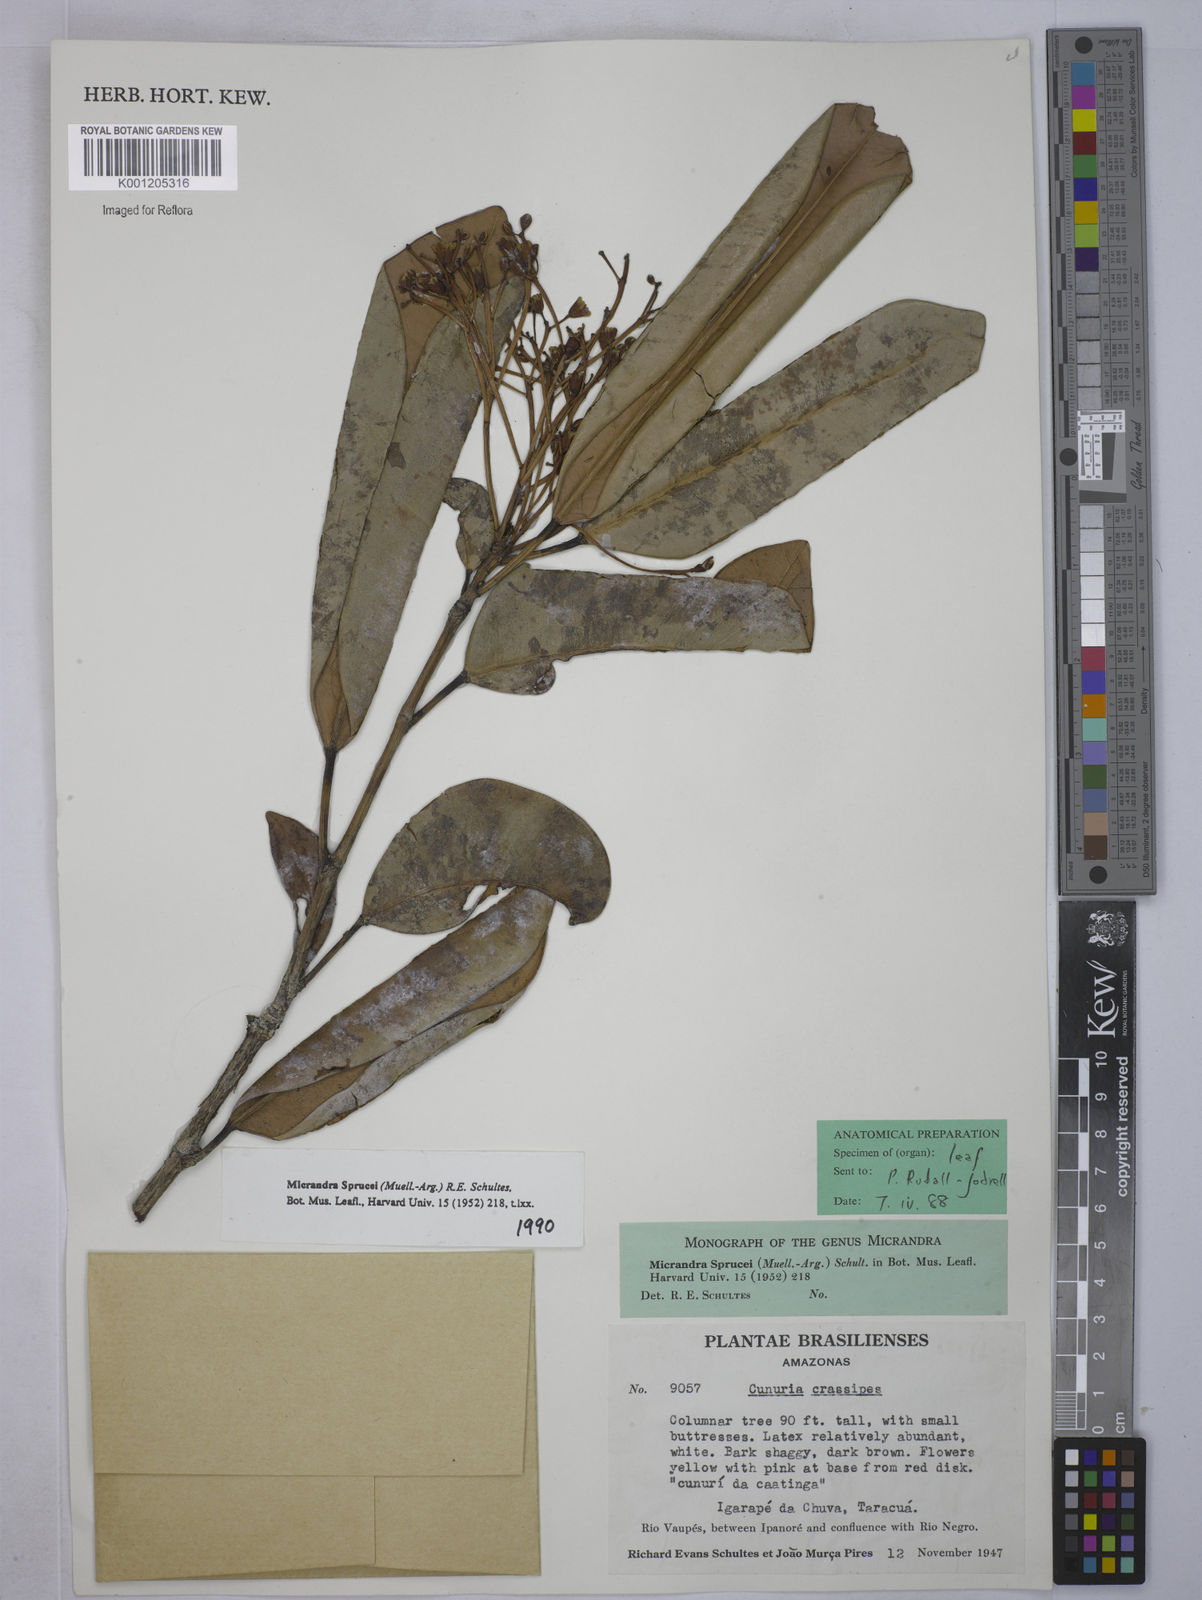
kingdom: Plantae
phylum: Tracheophyta
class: Magnoliopsida
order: Malpighiales
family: Euphorbiaceae
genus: Micrandra
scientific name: Micrandra spruceana
